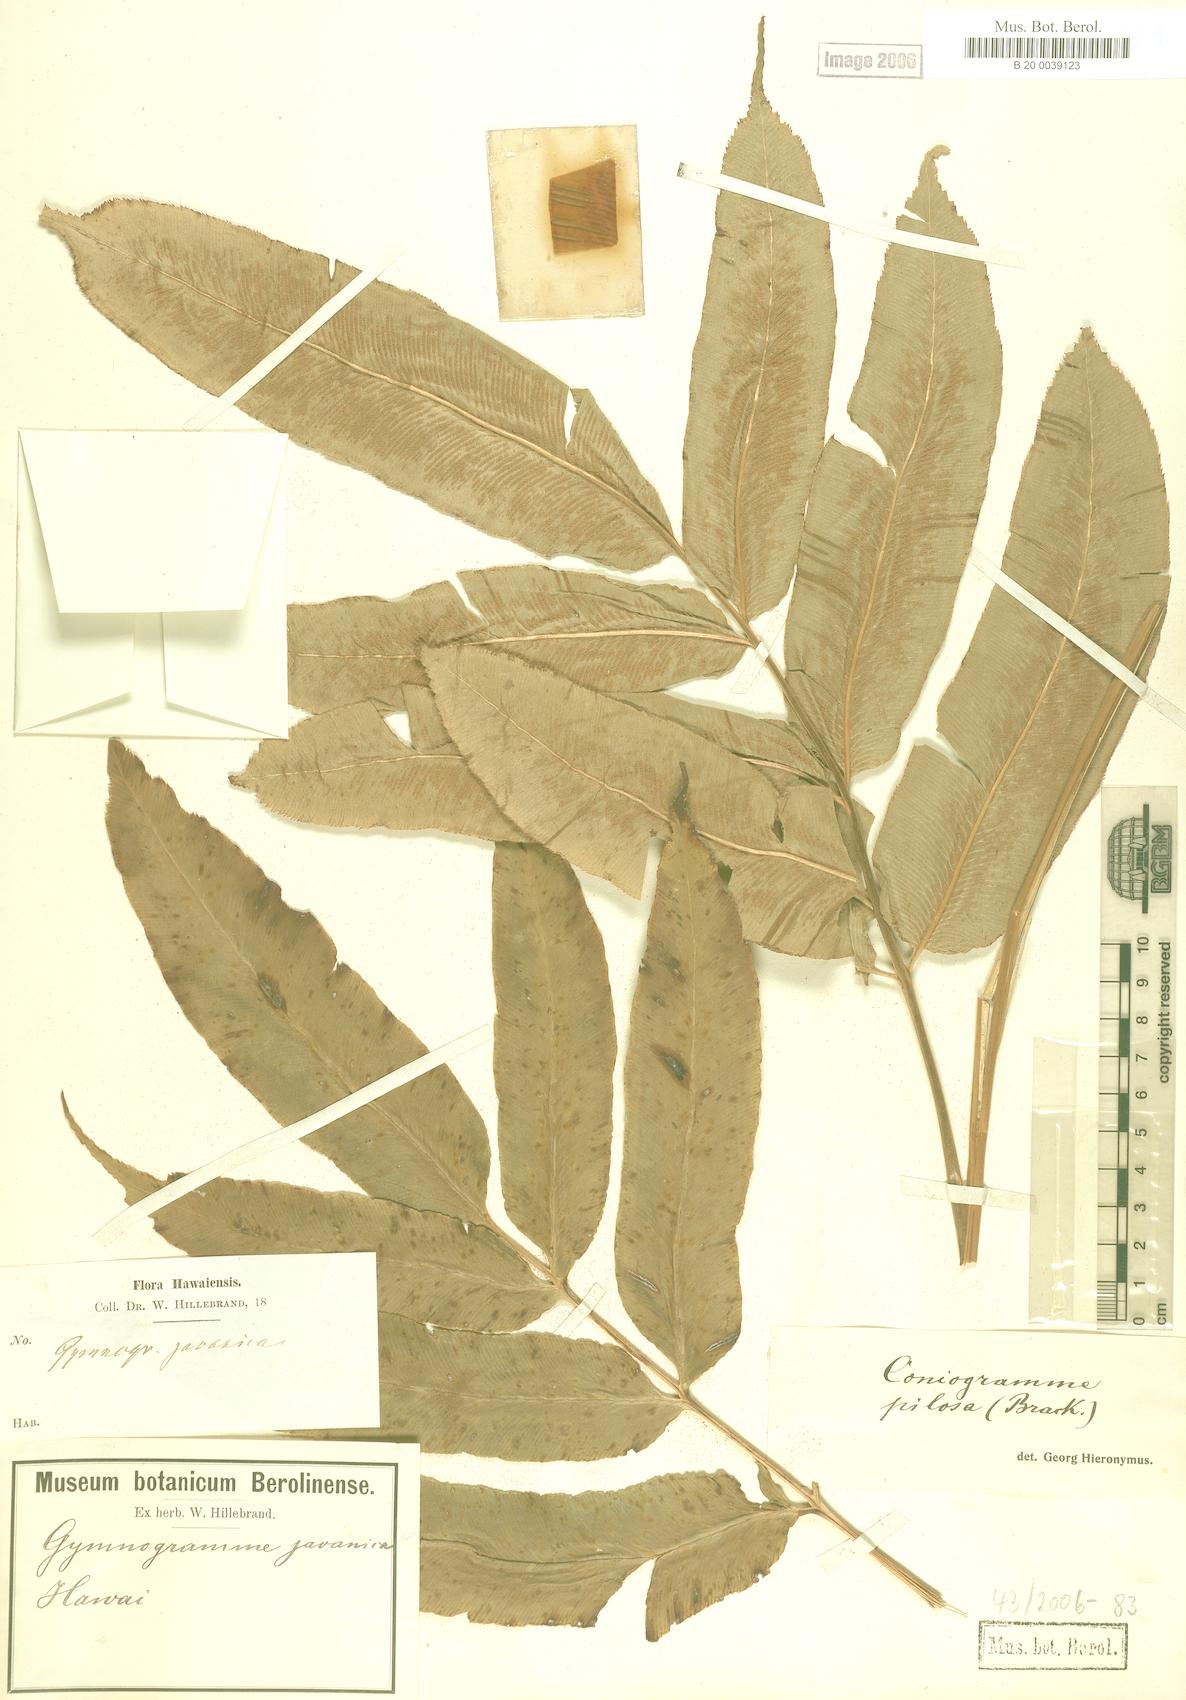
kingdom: Plantae
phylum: Tracheophyta
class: Polypodiopsida
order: Polypodiales
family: Pteridaceae
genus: Coniogramme
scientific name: Coniogramme pilosa
